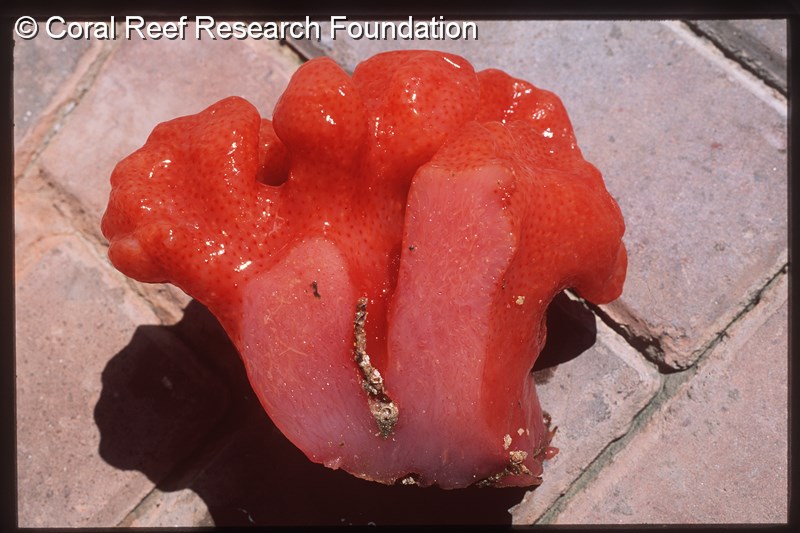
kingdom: Animalia
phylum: Chordata
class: Ascidiacea
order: Aplousobranchia
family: Holozoidae
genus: Sigillina
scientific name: Sigillina digitata
